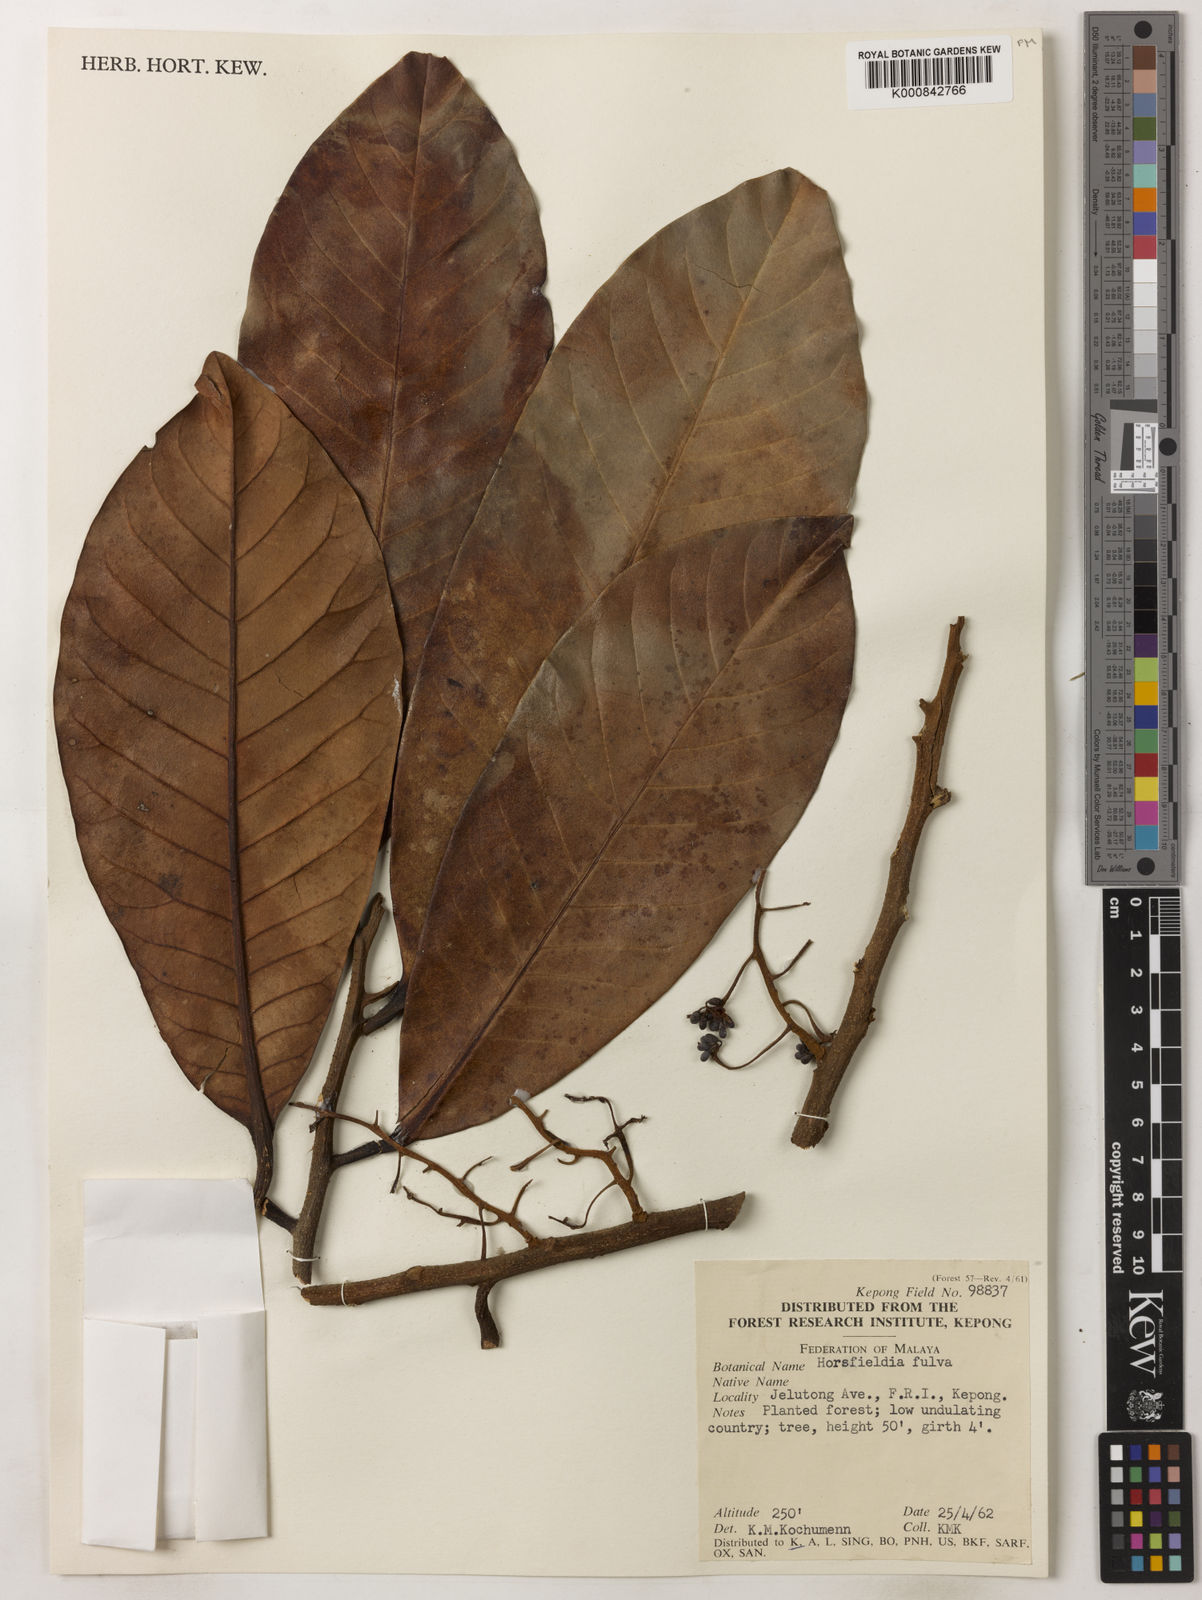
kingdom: Plantae
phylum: Tracheophyta
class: Magnoliopsida
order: Magnoliales
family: Myristicaceae
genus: Horsfieldia
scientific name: Horsfieldia fulva
